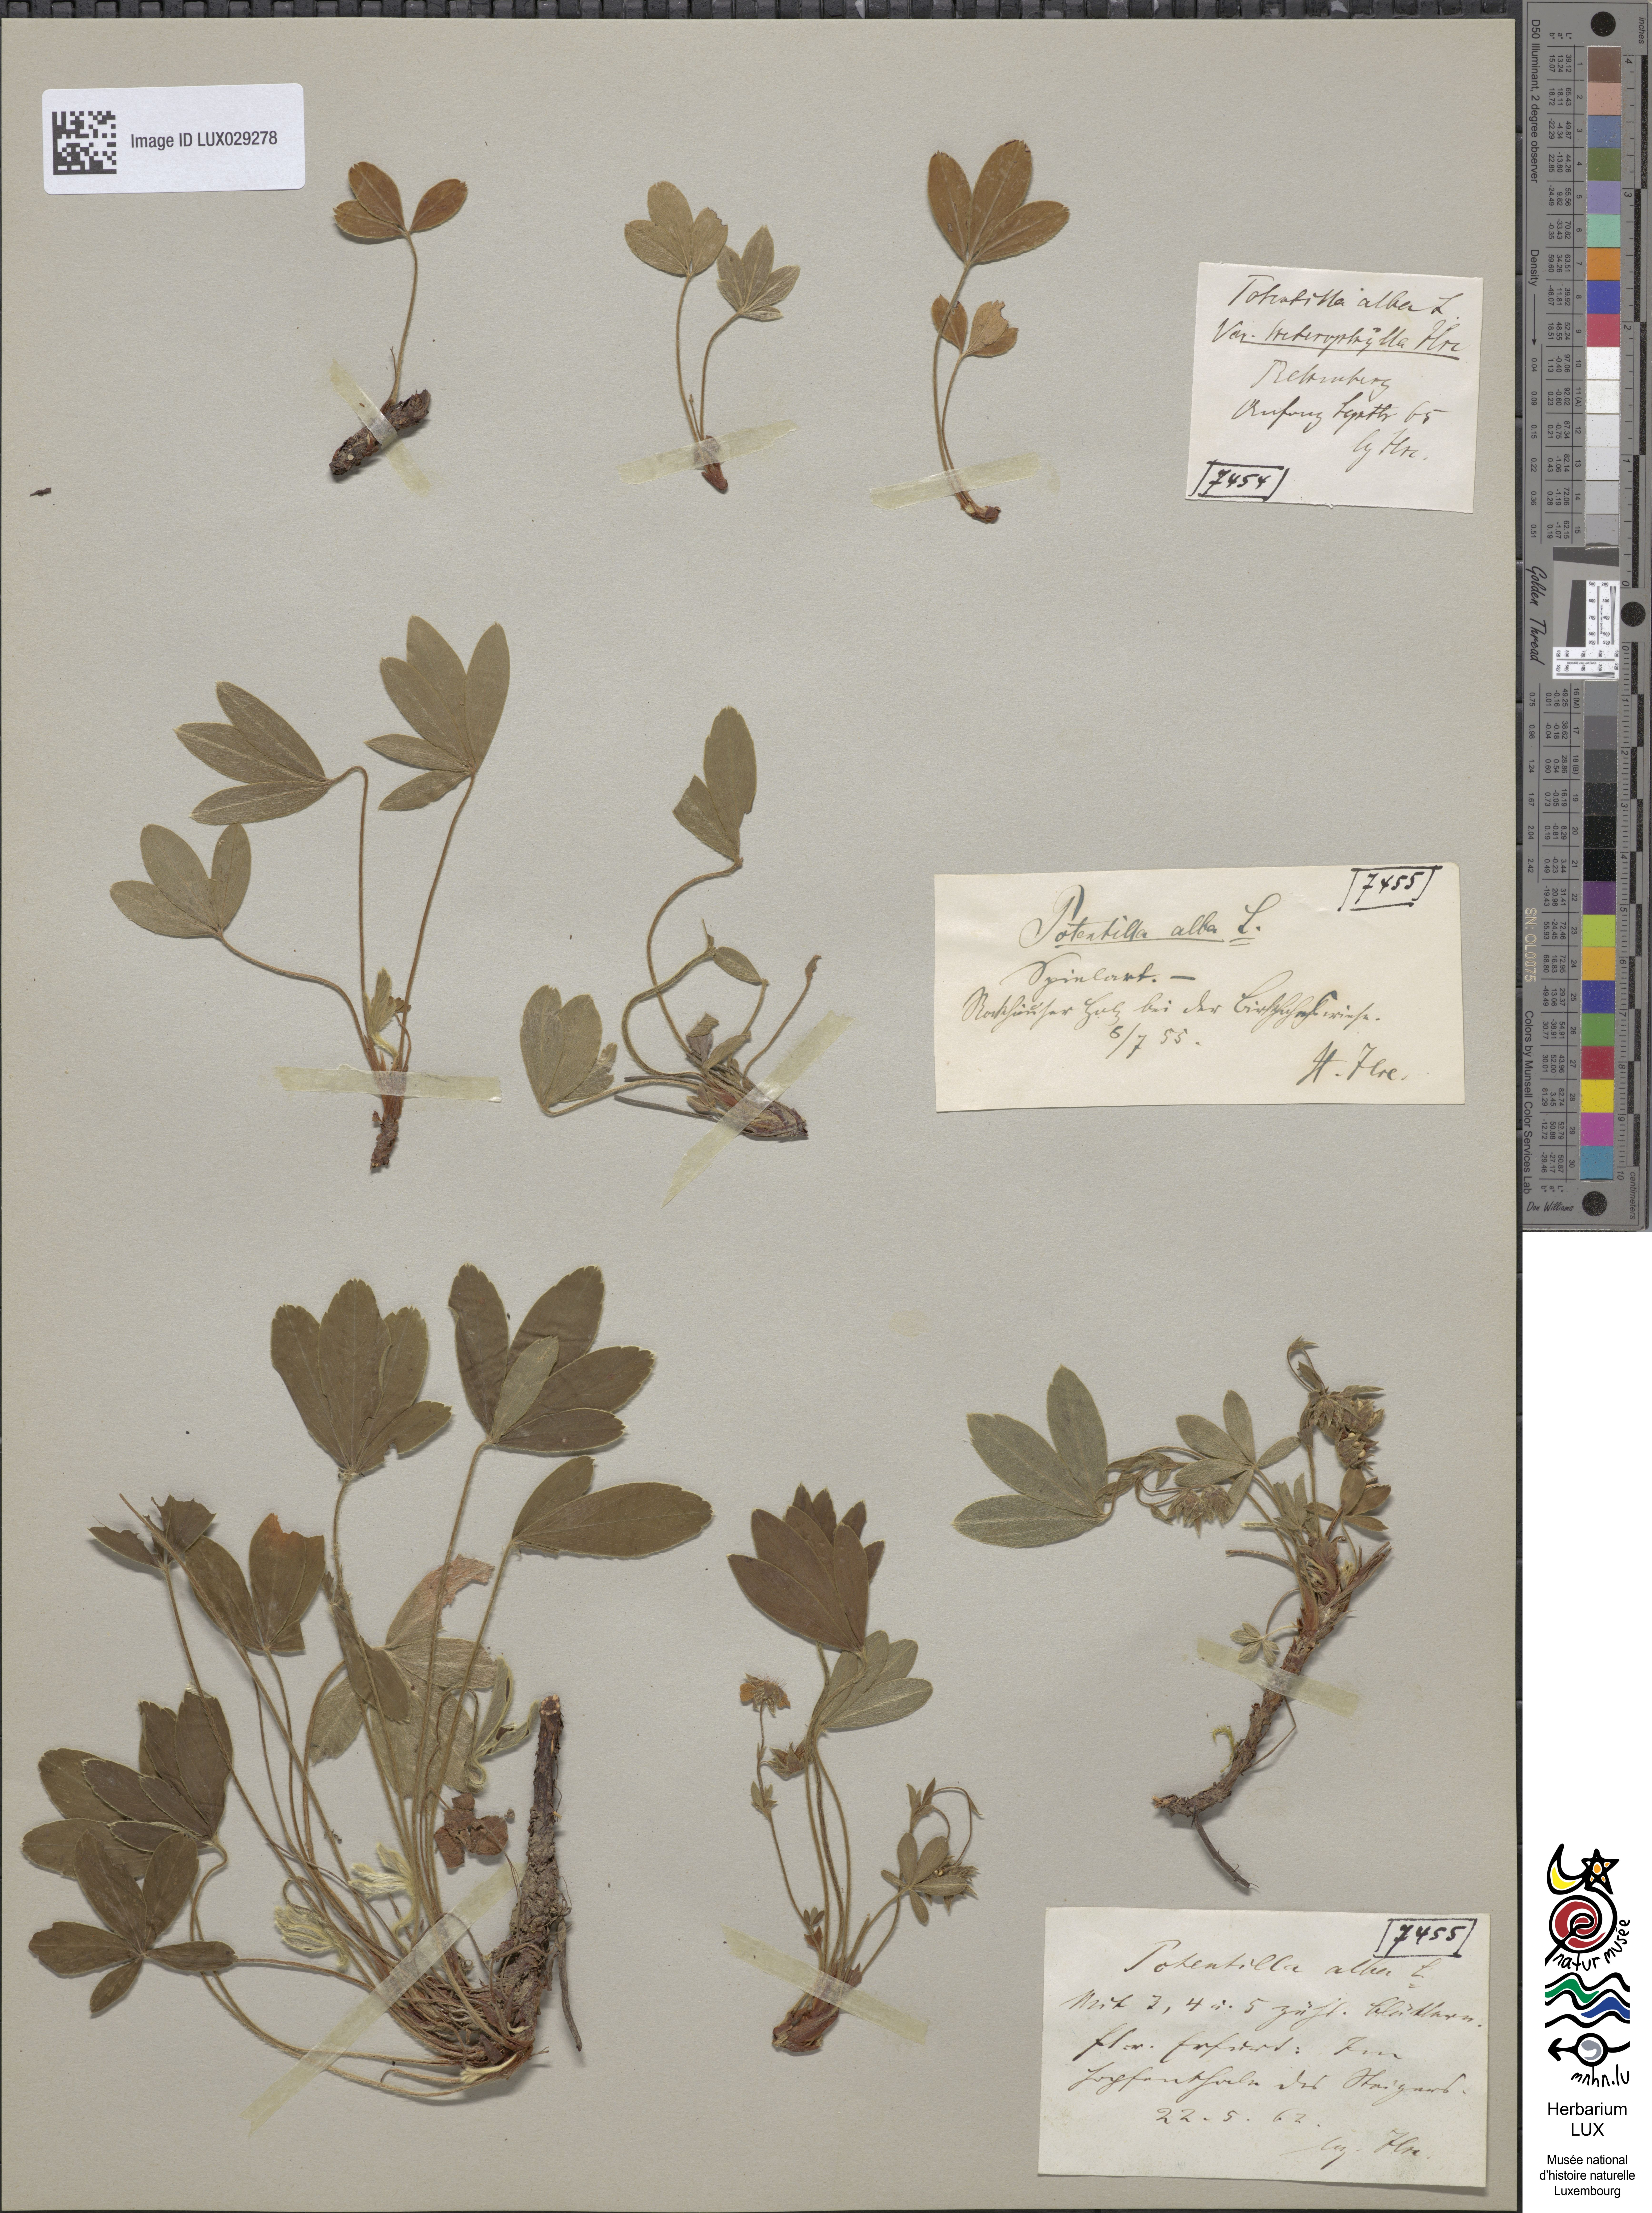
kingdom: Plantae
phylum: Tracheophyta
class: Magnoliopsida
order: Rosales
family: Rosaceae
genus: Potentilla
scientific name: Potentilla alba
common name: White cinquefoil
